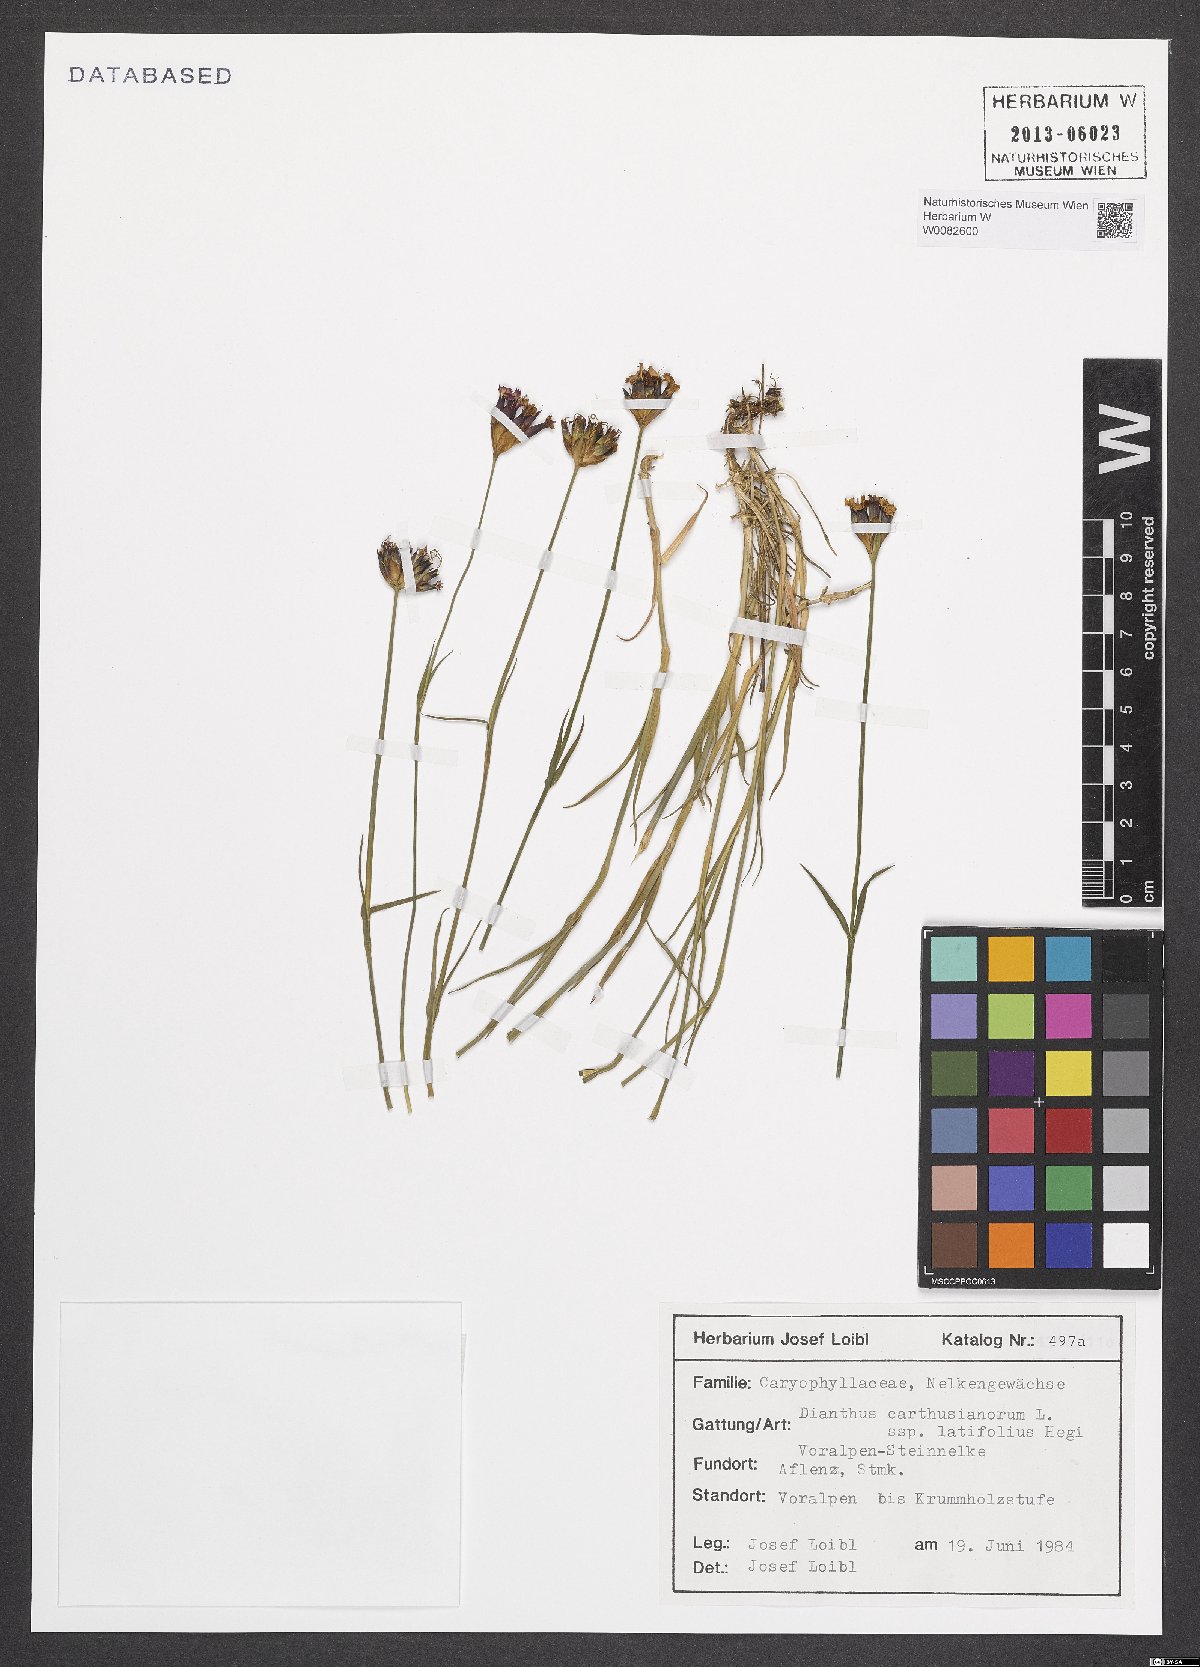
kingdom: Plantae
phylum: Tracheophyta
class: Magnoliopsida
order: Caryophyllales
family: Caryophyllaceae
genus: Dianthus
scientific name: Dianthus carthusianorum
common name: Carthusian pink
